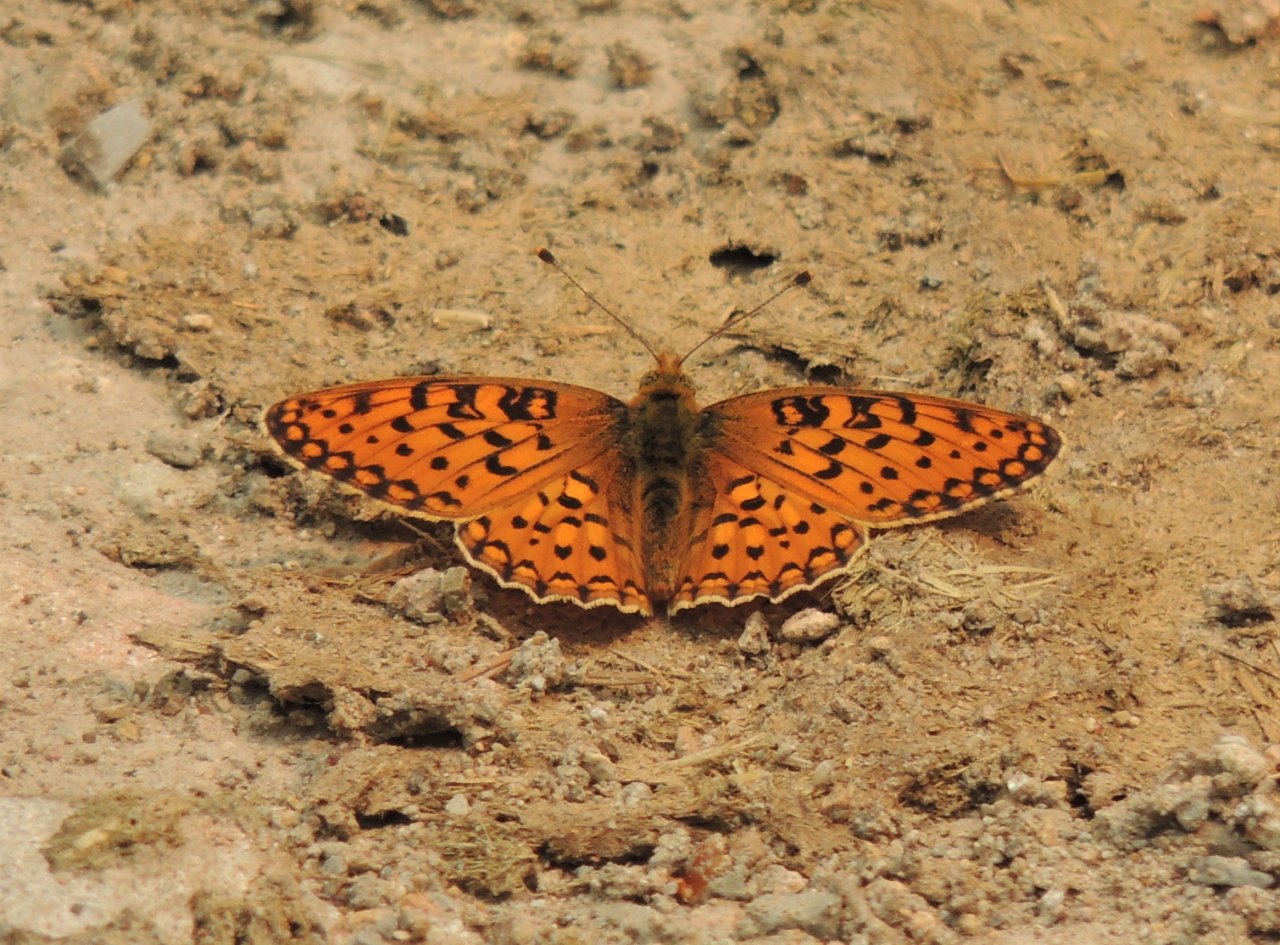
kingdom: Animalia
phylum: Arthropoda
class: Insecta
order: Lepidoptera
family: Nymphalidae
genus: Speyeria
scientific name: Speyeria mormonia
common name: Mormon Fritillary
